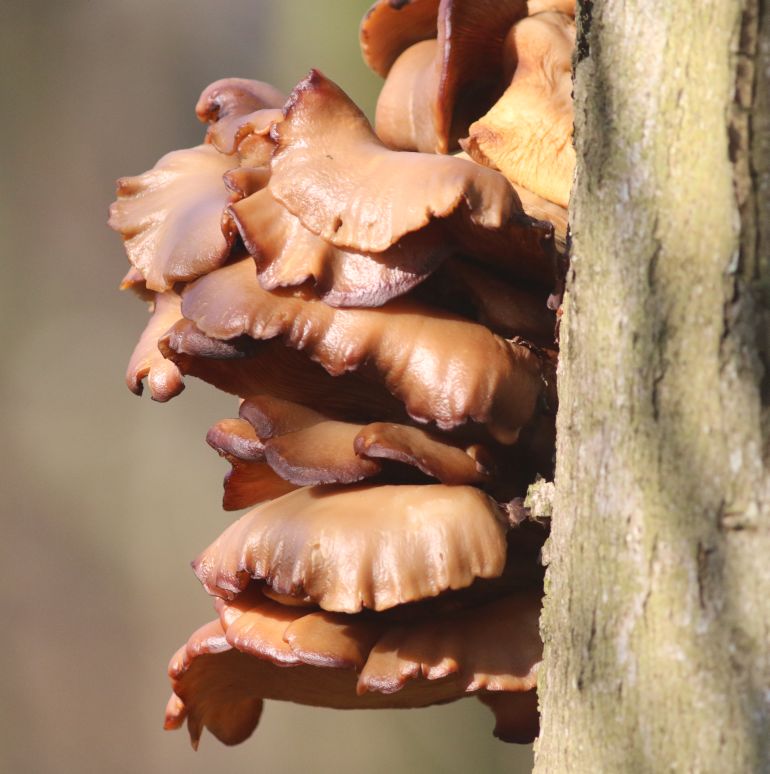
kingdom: Fungi
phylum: Basidiomycota
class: Agaricomycetes
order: Agaricales
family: Pleurotaceae
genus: Pleurotus
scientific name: Pleurotus ostreatus
